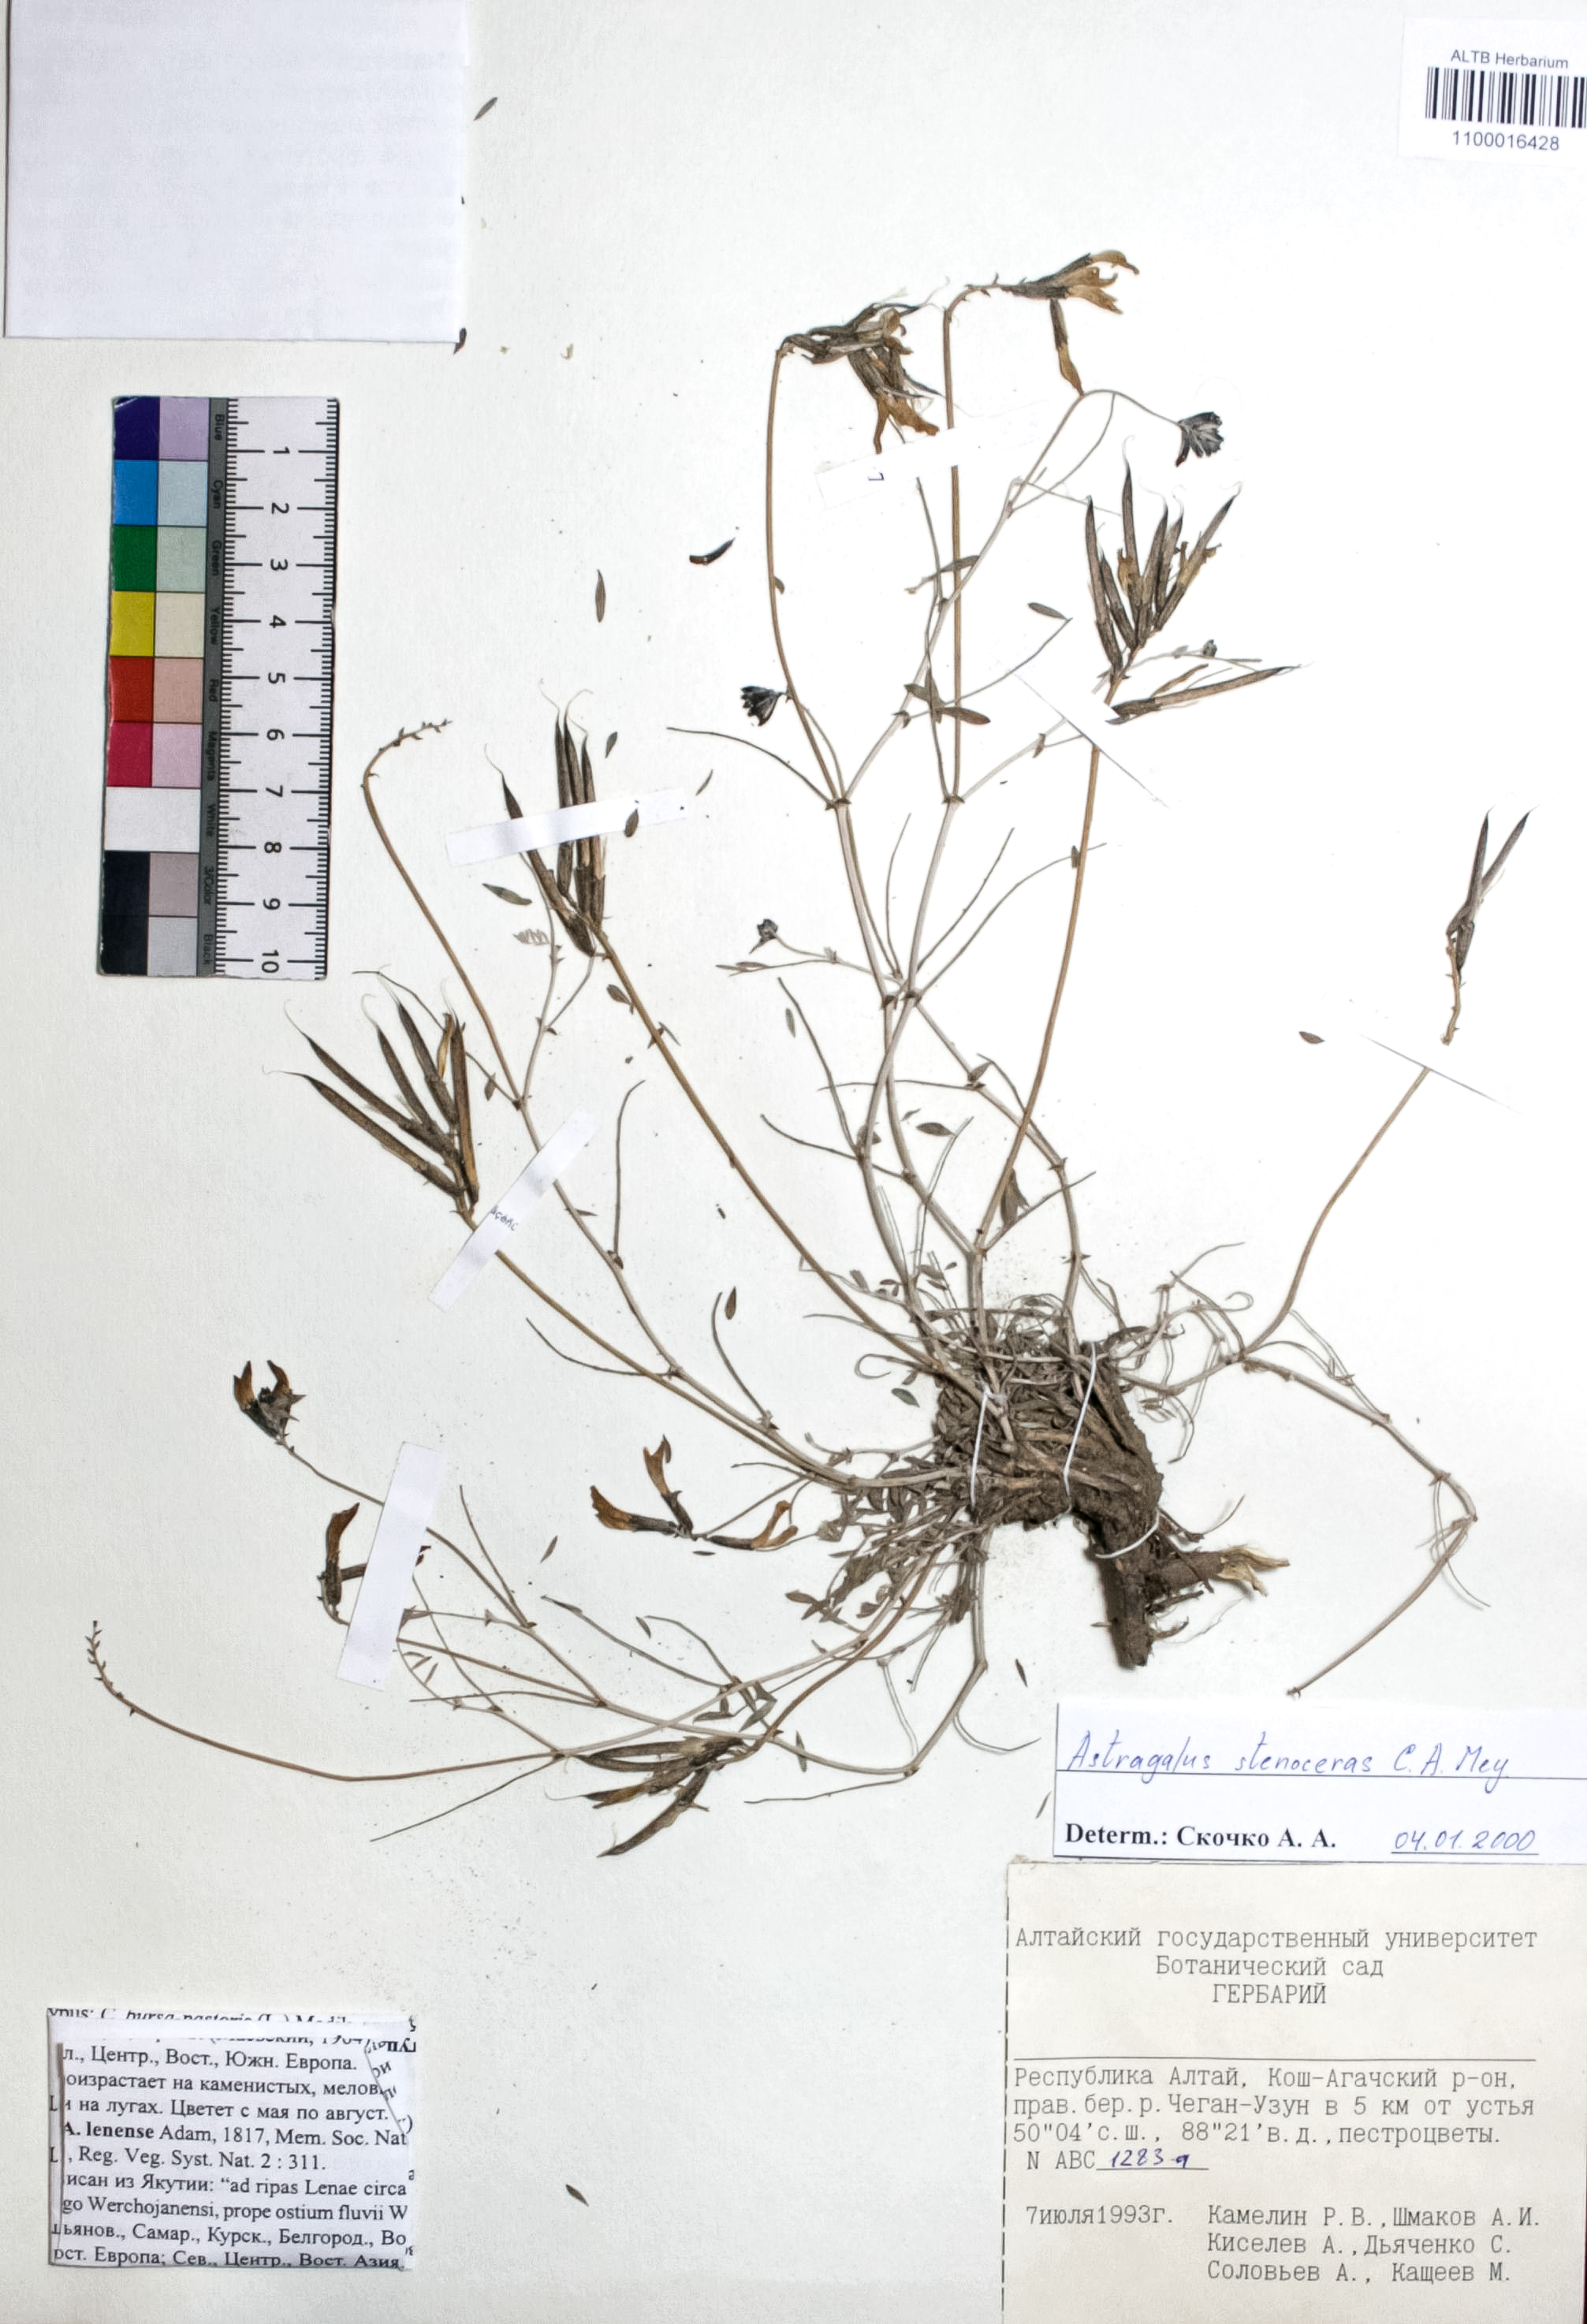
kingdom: Plantae
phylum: Tracheophyta
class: Magnoliopsida
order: Fabales
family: Fabaceae
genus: Astragalus
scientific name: Astragalus stenoceras
